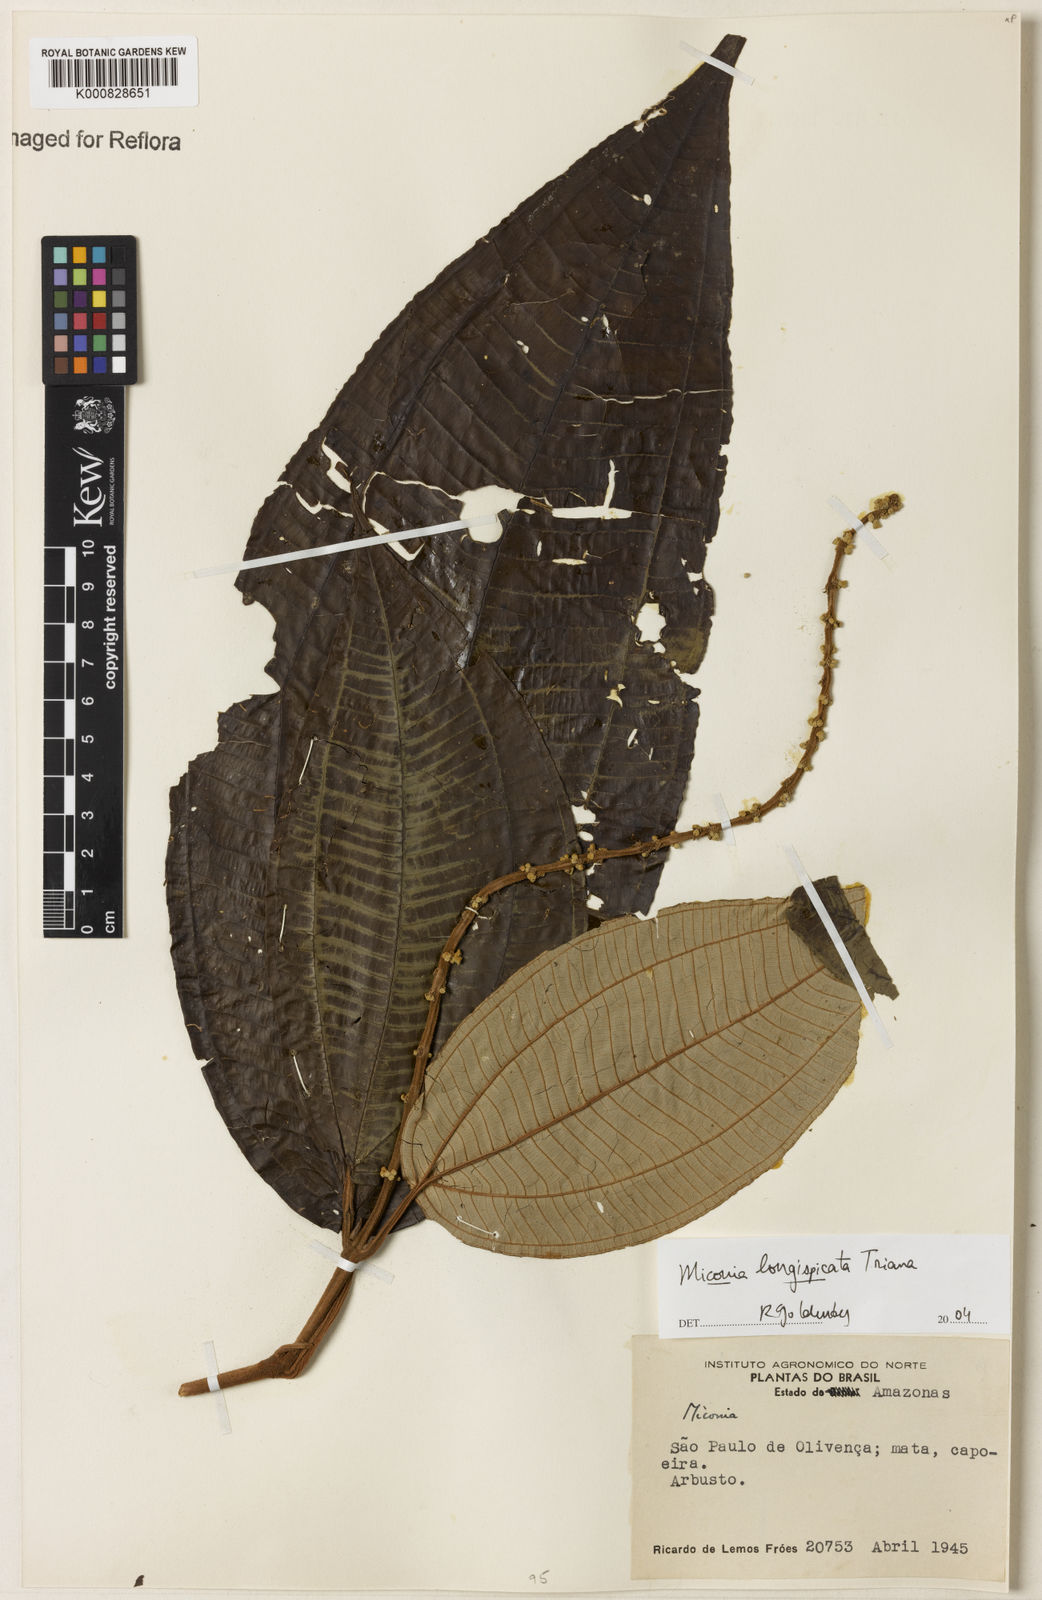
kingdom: Plantae
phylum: Tracheophyta
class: Magnoliopsida
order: Myrtales
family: Melastomataceae
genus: Miconia
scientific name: Miconia longispicata
